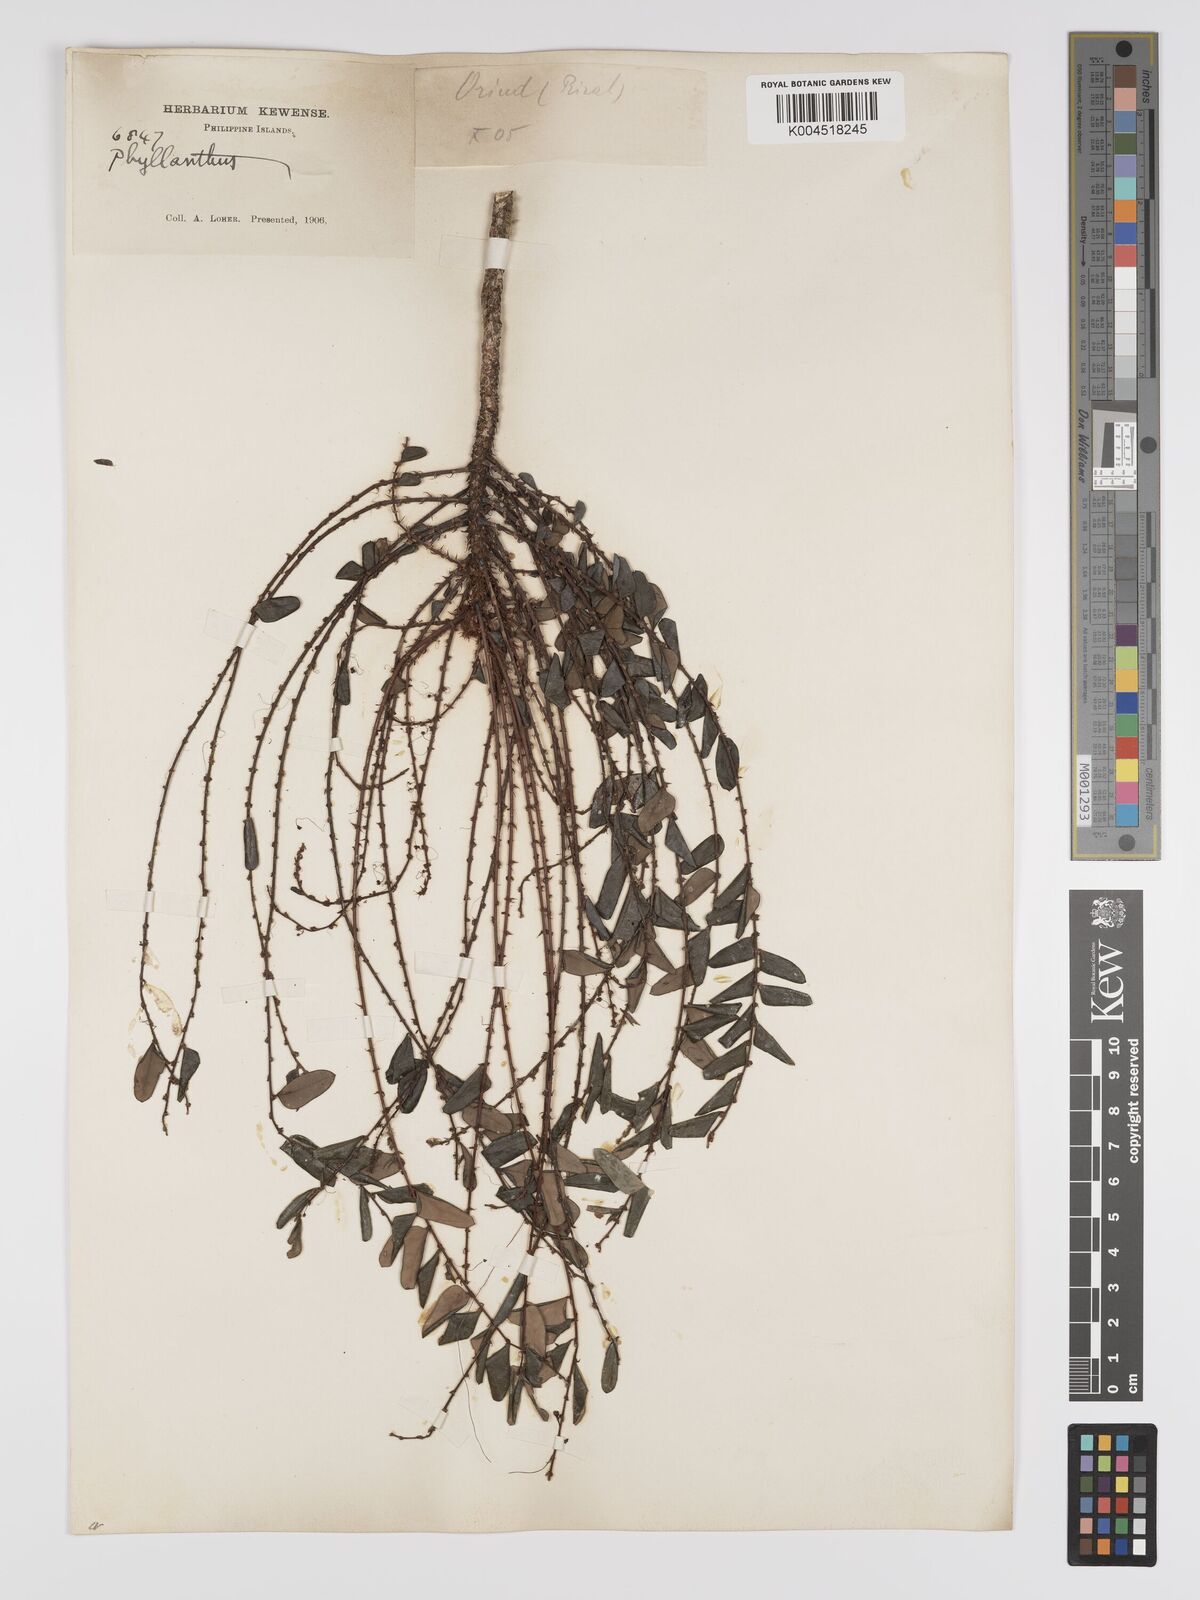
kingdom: Plantae
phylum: Tracheophyta
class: Magnoliopsida
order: Malpighiales
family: Phyllanthaceae
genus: Phyllanthus
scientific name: Phyllanthus celebicus
